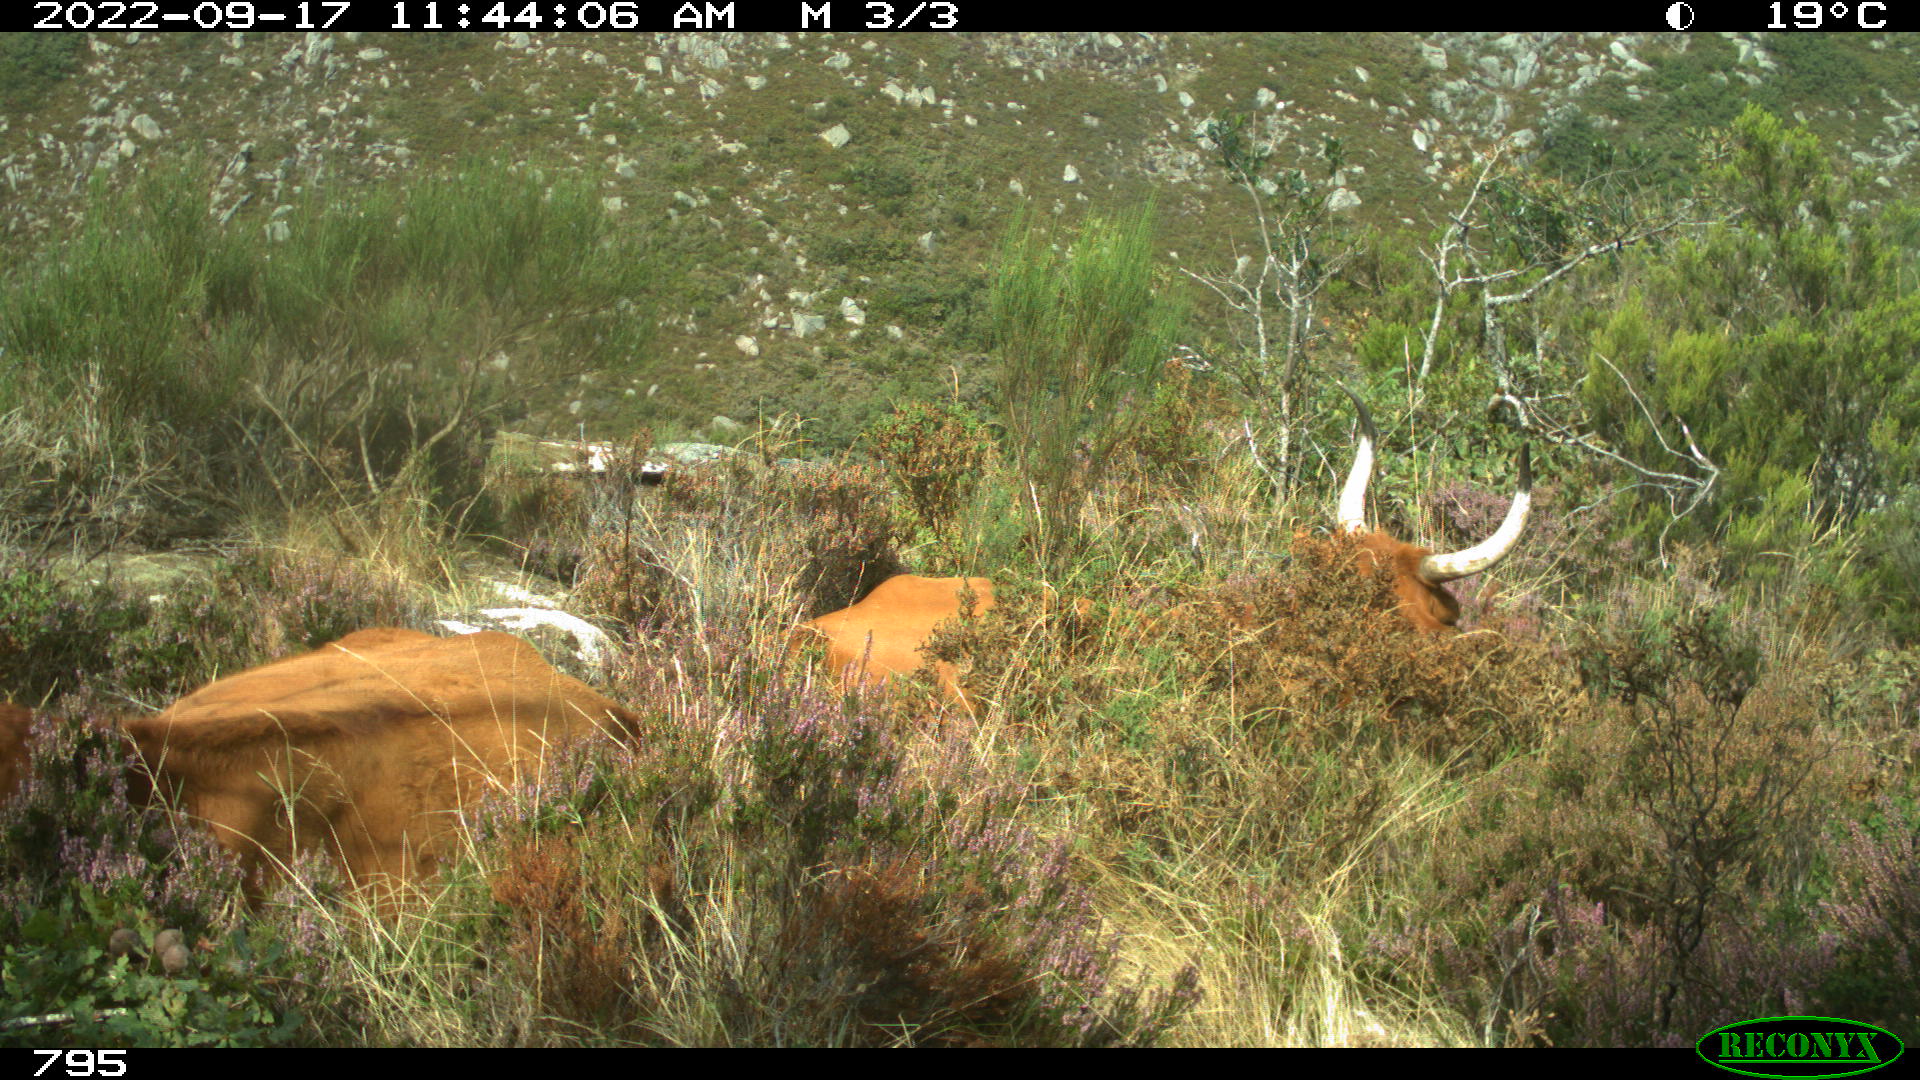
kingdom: Animalia
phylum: Chordata
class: Mammalia
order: Artiodactyla
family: Bovidae
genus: Bos
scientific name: Bos taurus
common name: Domesticated cattle
